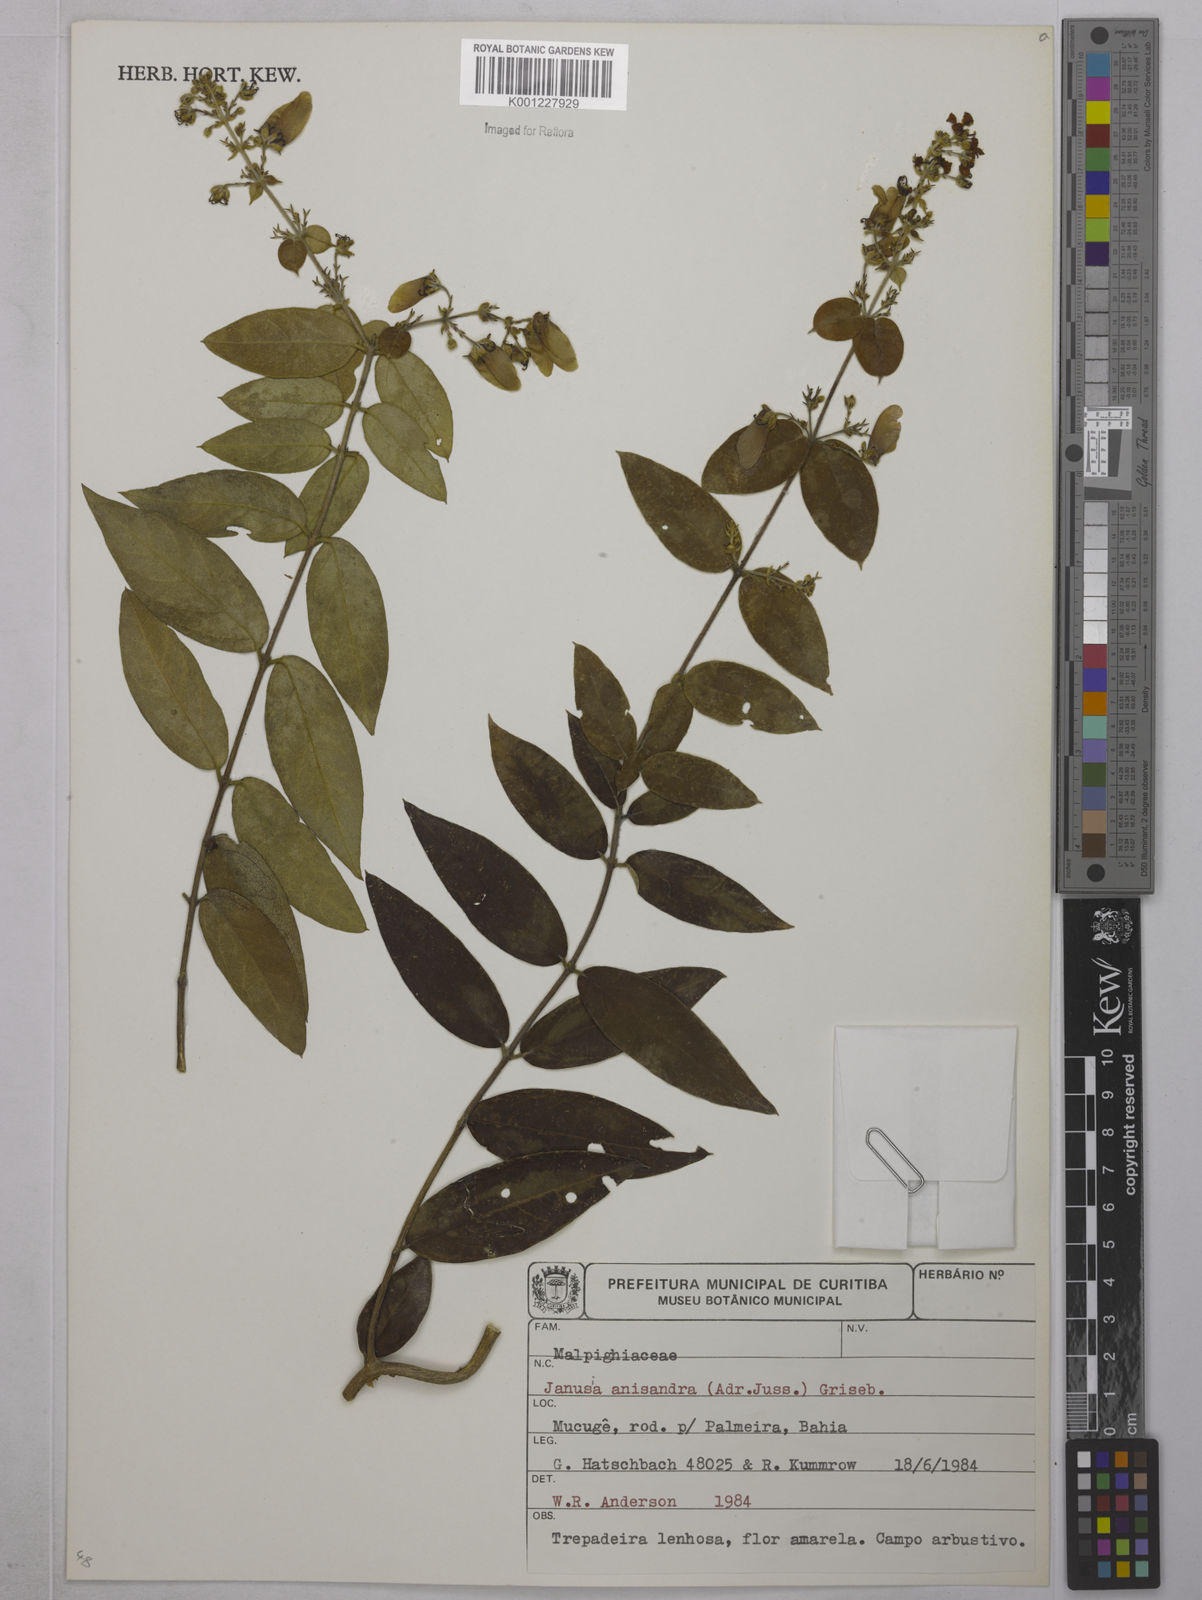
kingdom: Plantae
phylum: Tracheophyta
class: Magnoliopsida
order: Malpighiales
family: Malpighiaceae
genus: Janusia
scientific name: Janusia anisandra
